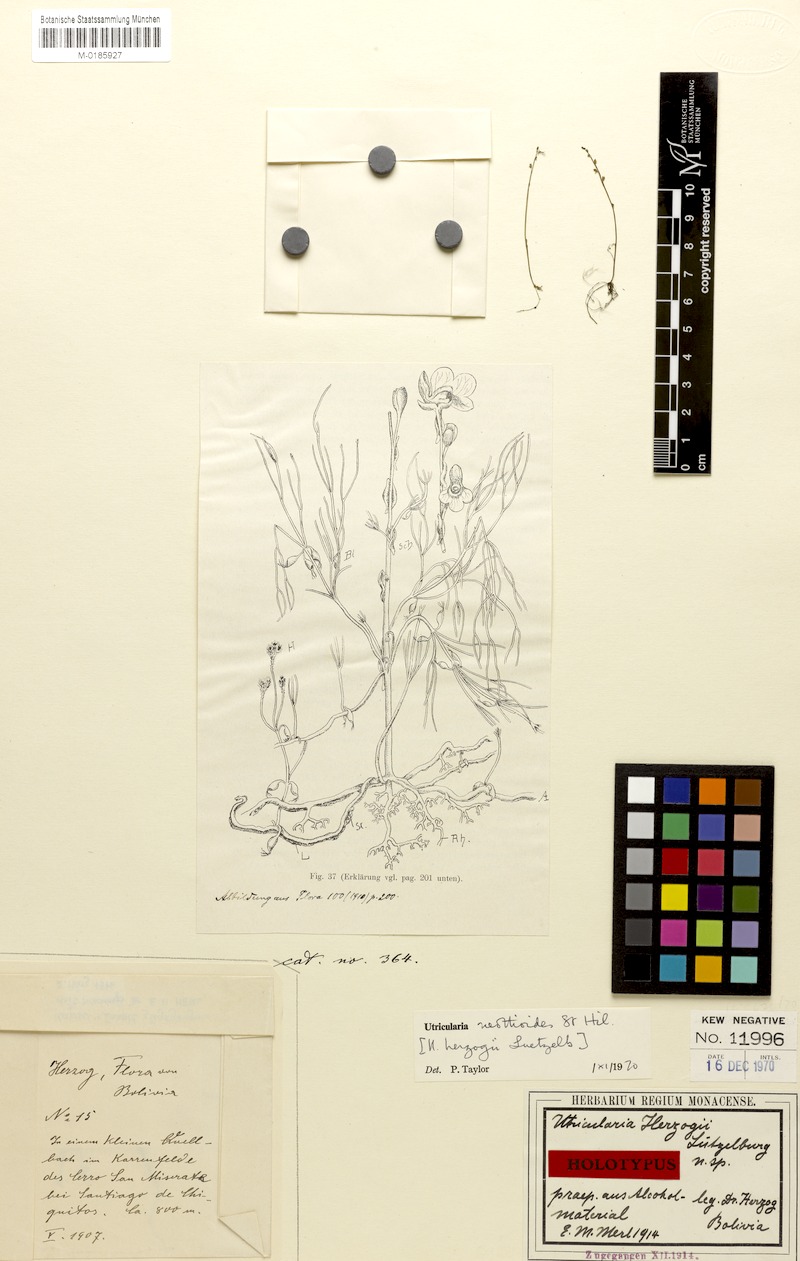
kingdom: Plantae
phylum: Tracheophyta
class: Magnoliopsida
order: Lamiales
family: Lentibulariaceae
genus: Utricularia
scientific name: Utricularia neottioides
